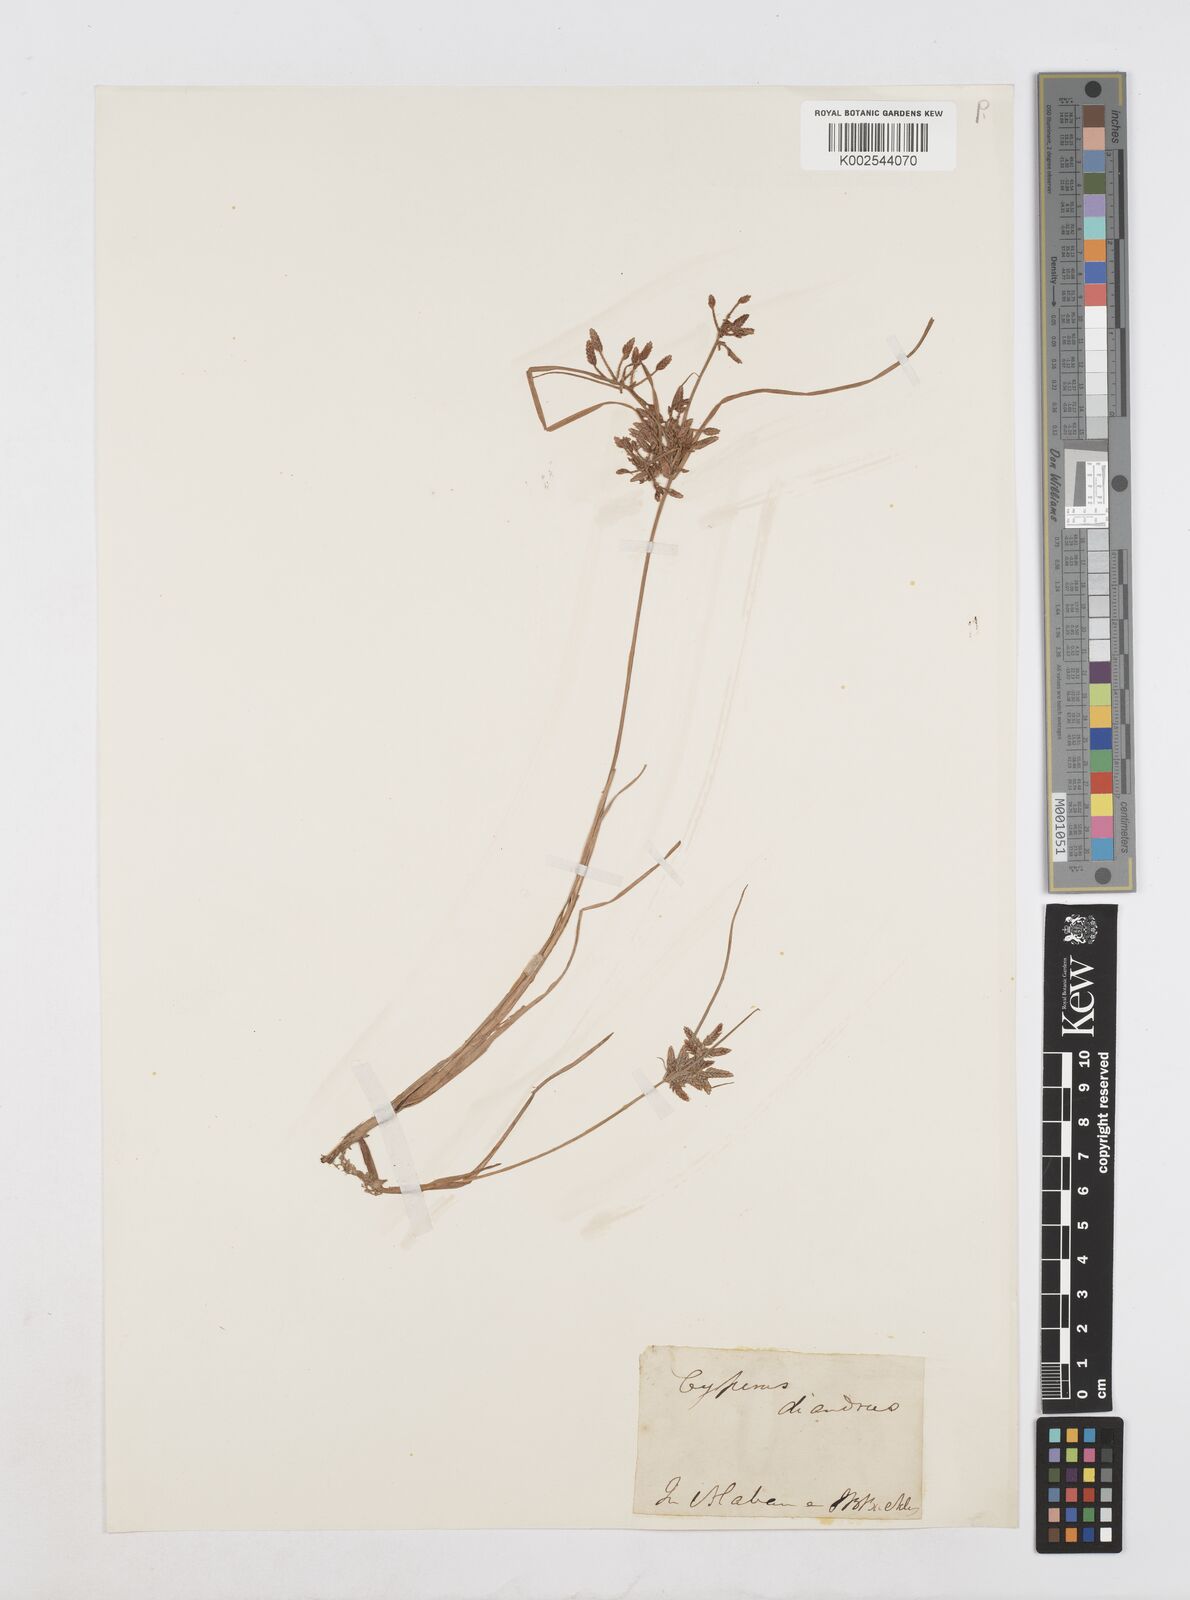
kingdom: Plantae
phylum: Tracheophyta
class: Liliopsida
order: Poales
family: Cyperaceae
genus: Cyperus
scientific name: Cyperus diandrus
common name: Low cyperus
